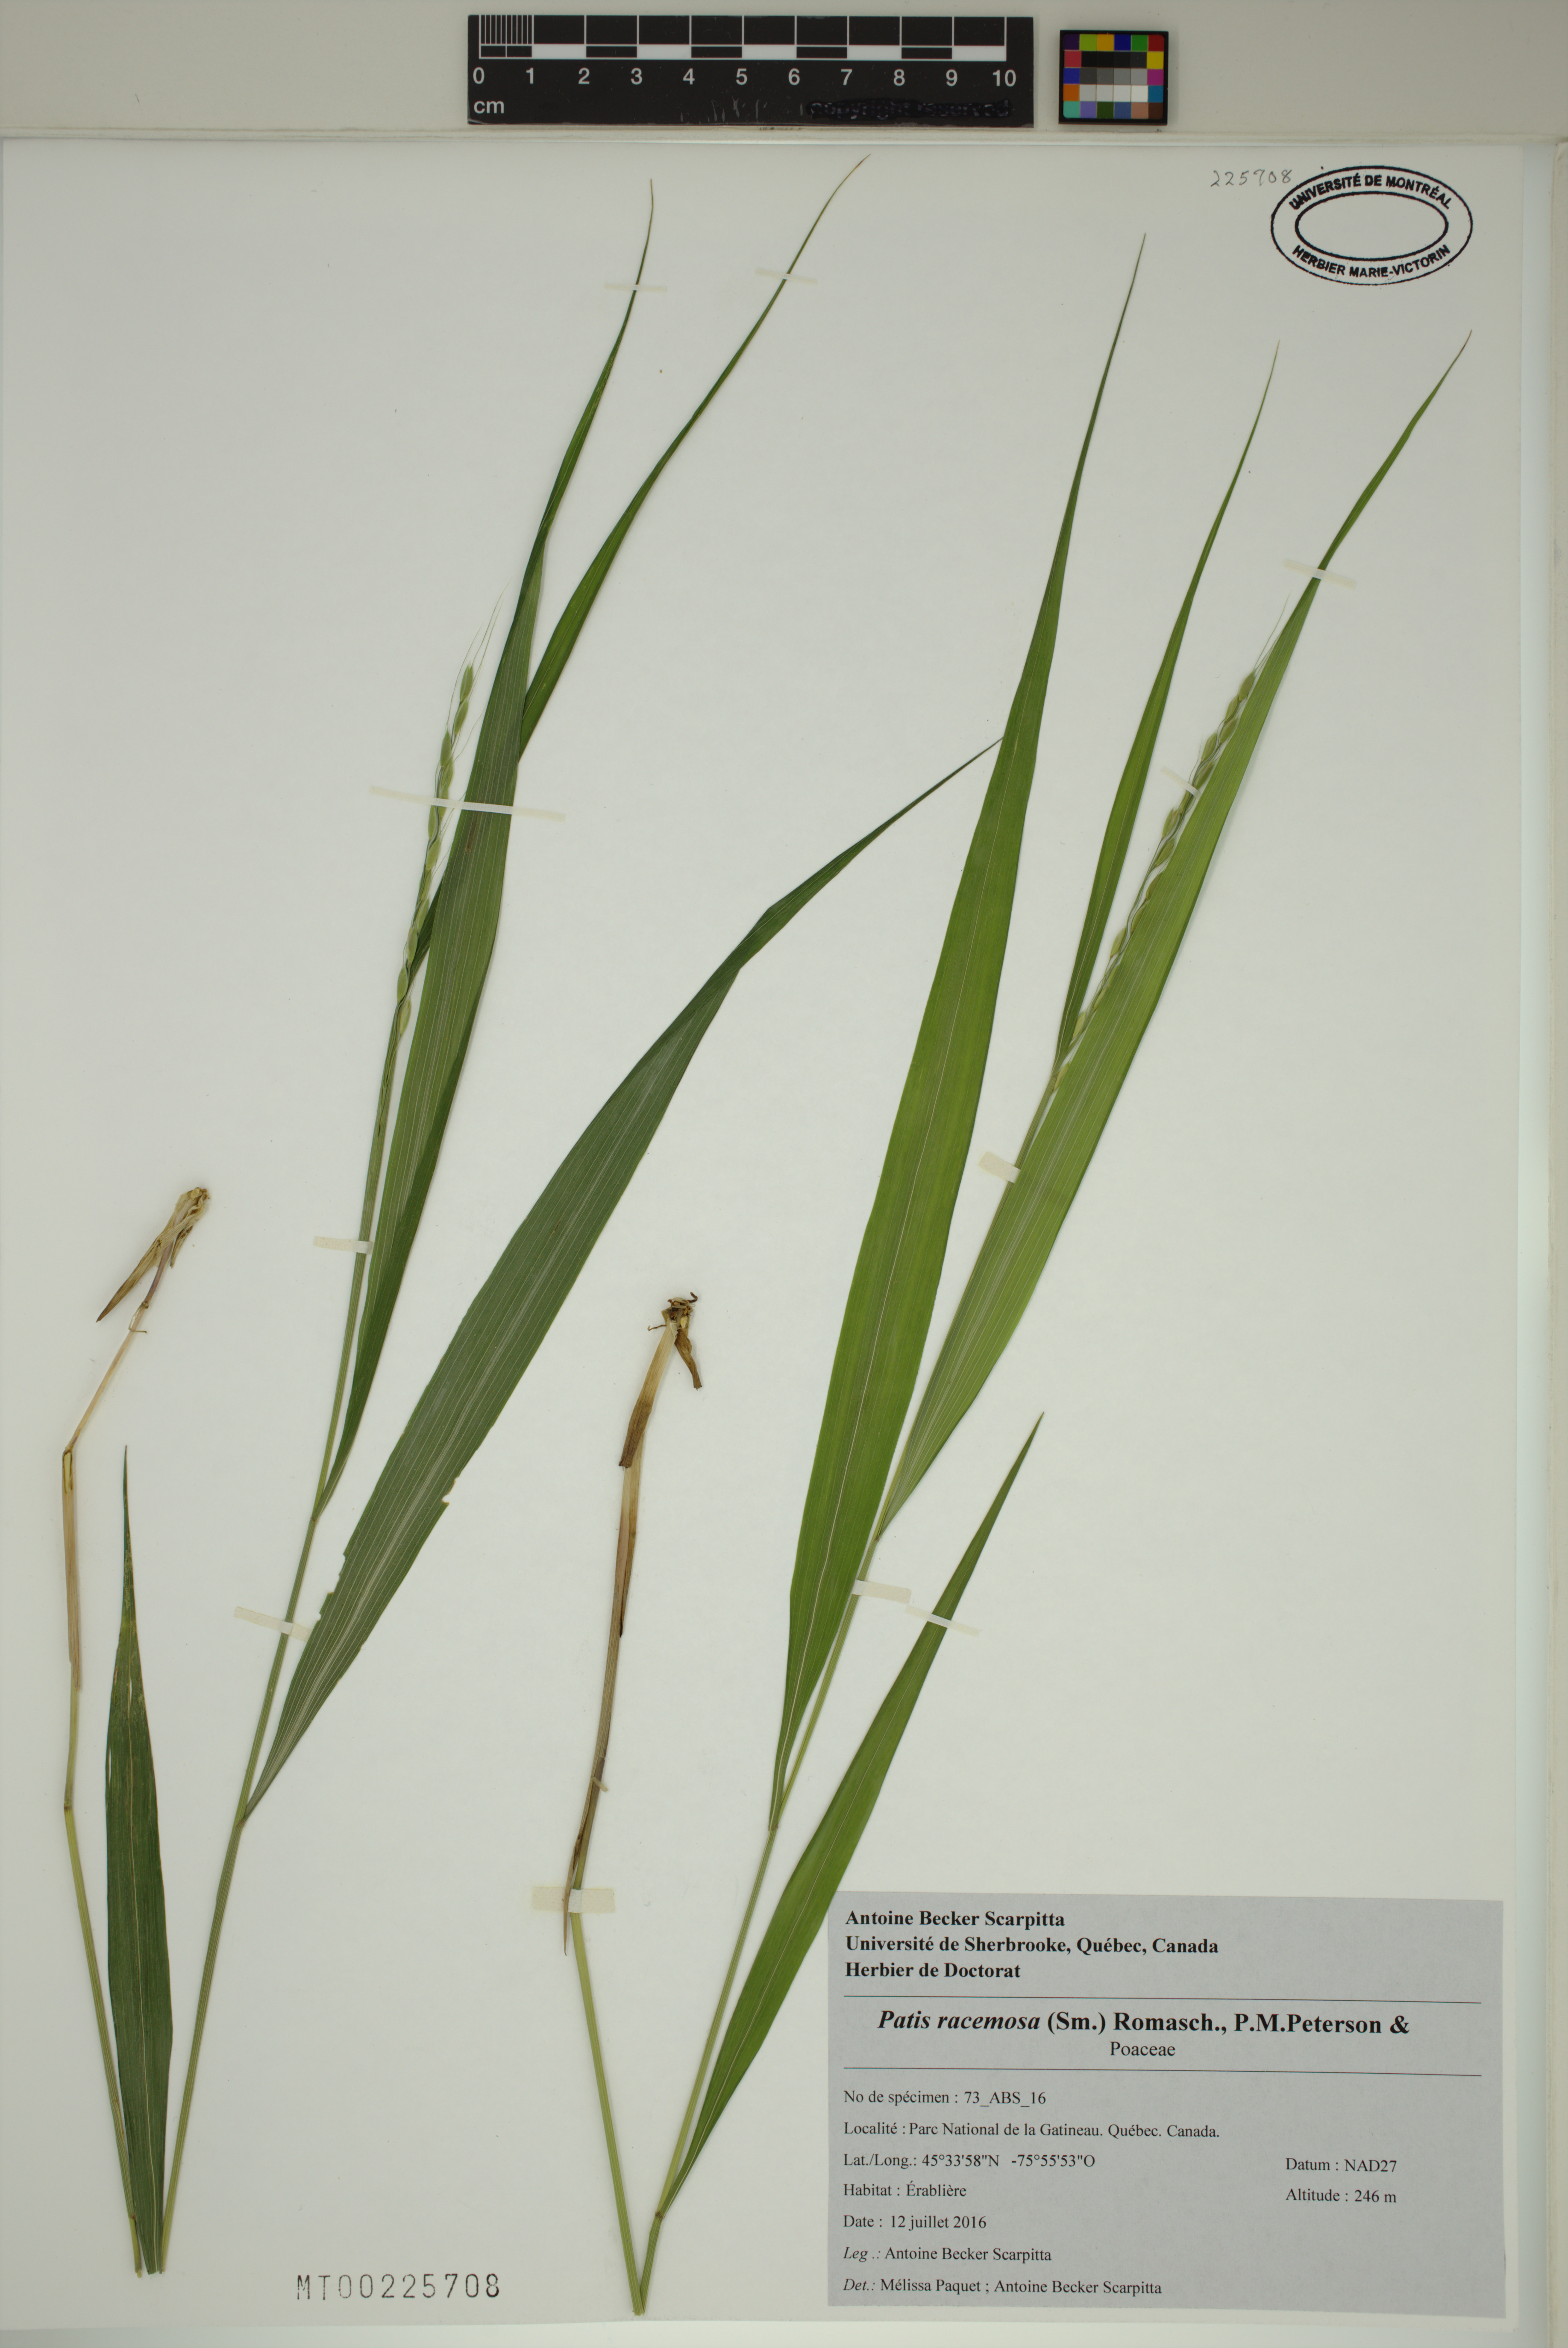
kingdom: Plantae
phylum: Tracheophyta
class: Liliopsida
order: Poales
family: Poaceae
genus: Patis
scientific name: Patis racemosa
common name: Black-fruited mountain rice
